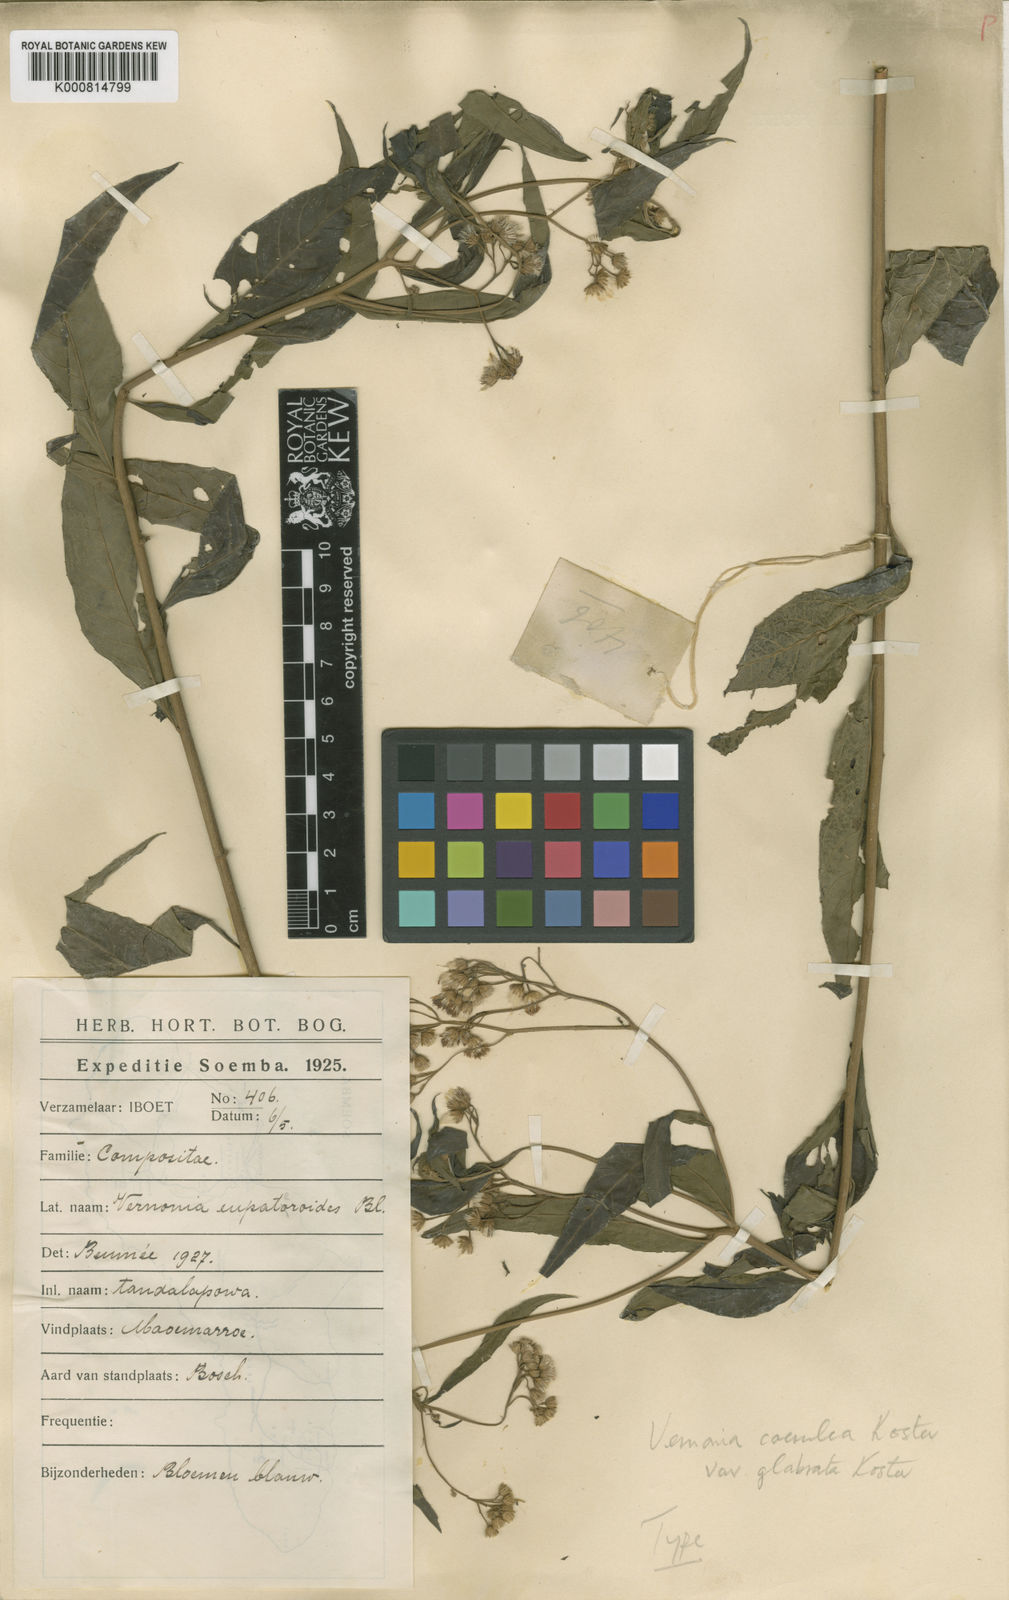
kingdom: Plantae
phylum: Tracheophyta
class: Magnoliopsida
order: Asterales
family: Asteraceae
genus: Vernonia
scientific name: Vernonia coerulea
